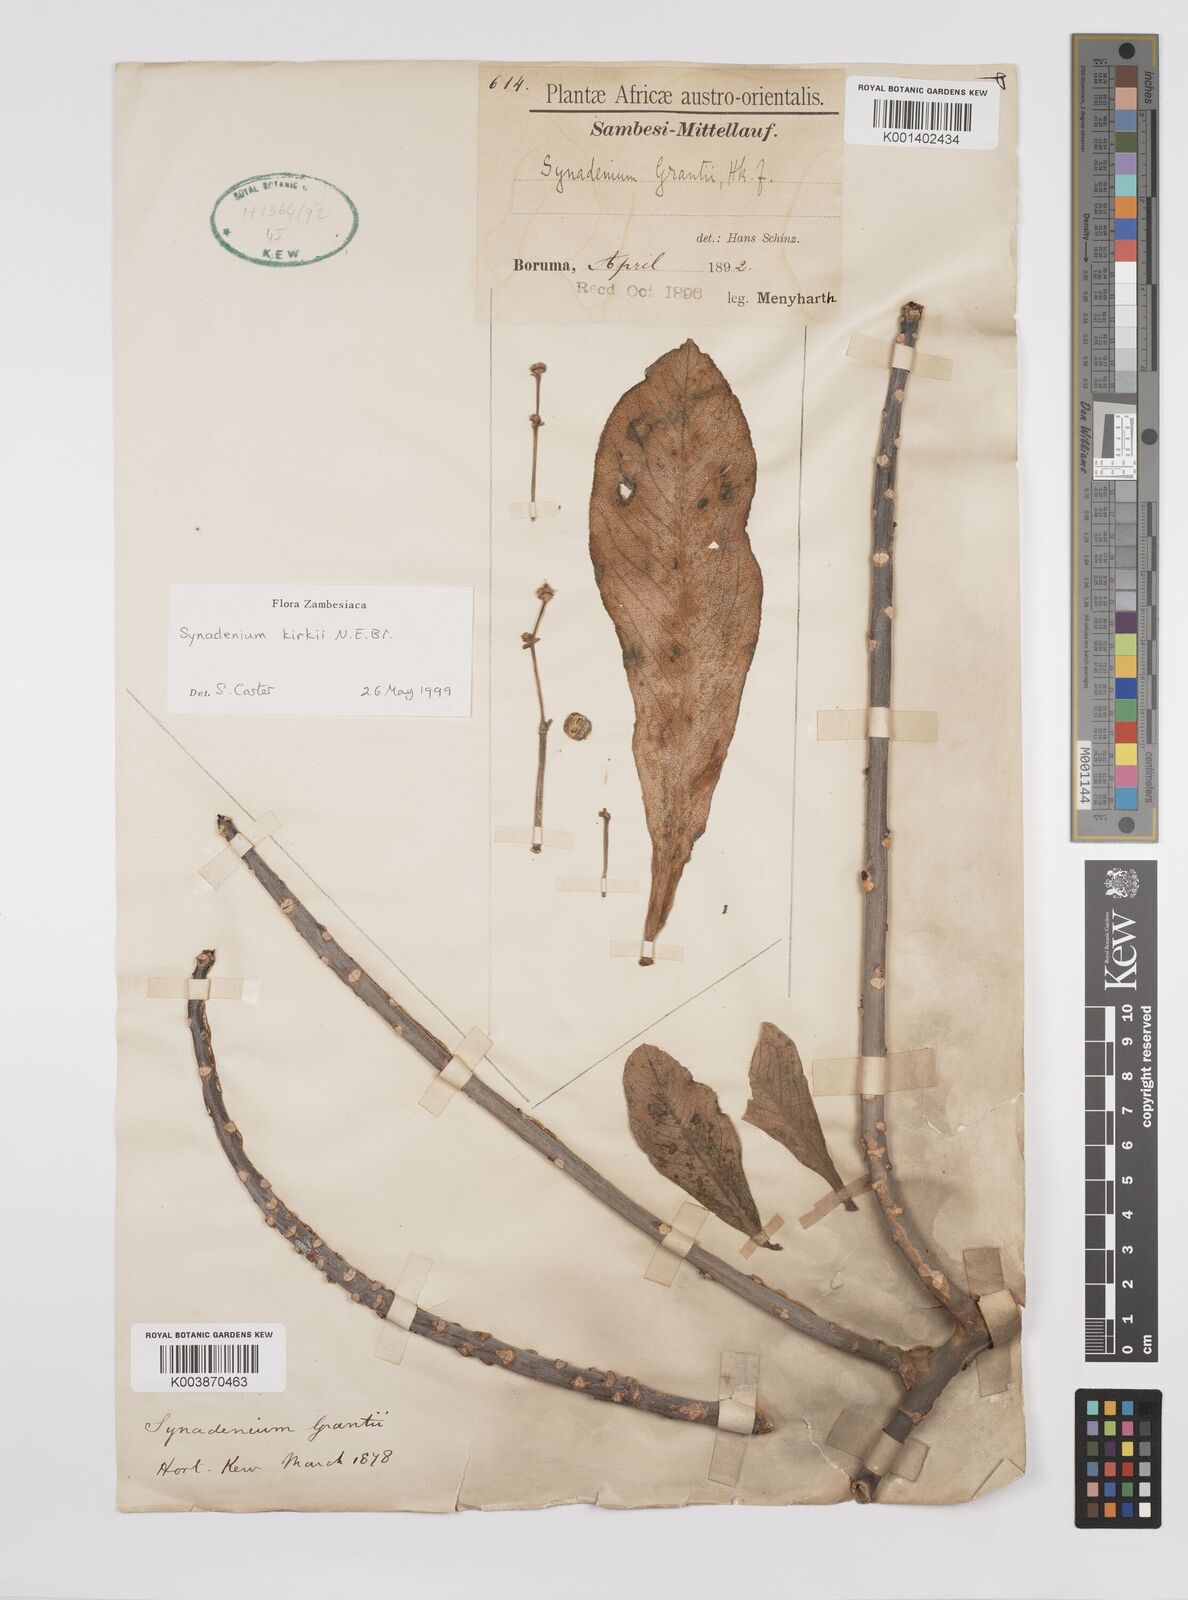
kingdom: Plantae
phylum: Tracheophyta
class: Magnoliopsida
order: Malpighiales
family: Euphorbiaceae
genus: Euphorbia
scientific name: Euphorbia kirkii
